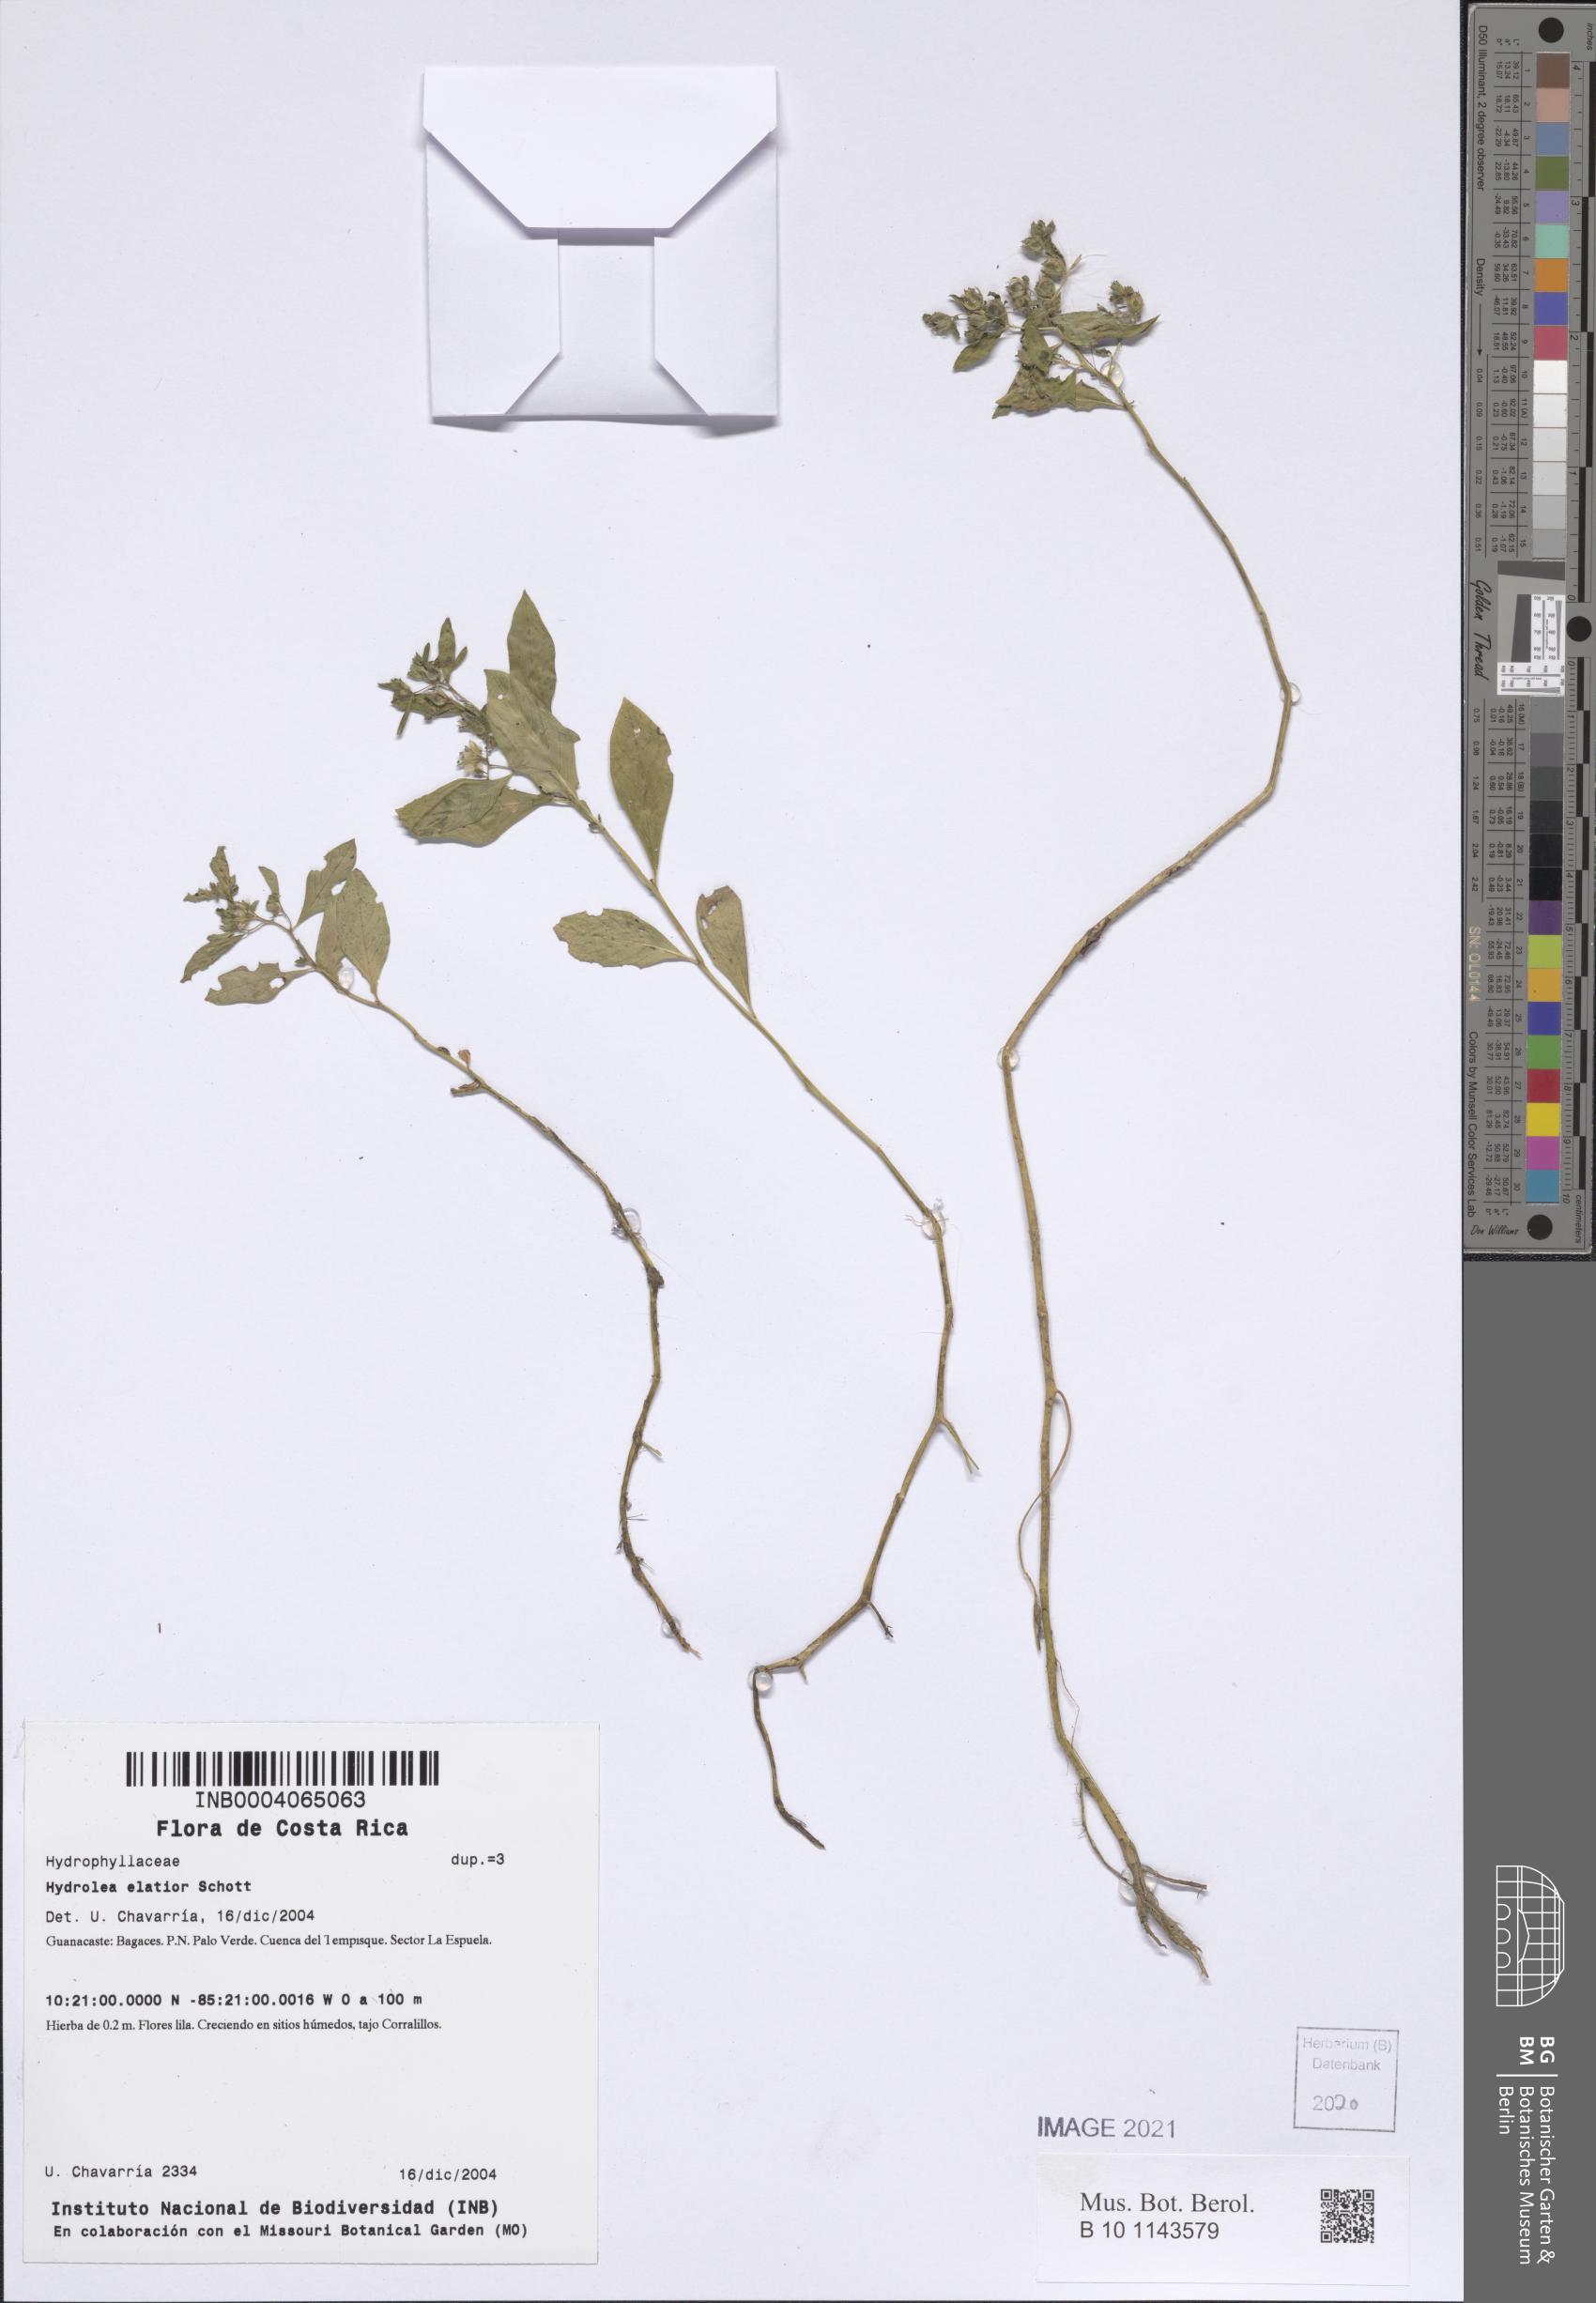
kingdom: Plantae
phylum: Tracheophyta
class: Magnoliopsida
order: Solanales
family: Hydroleaceae
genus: Hydrolea
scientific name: Hydrolea elatior
